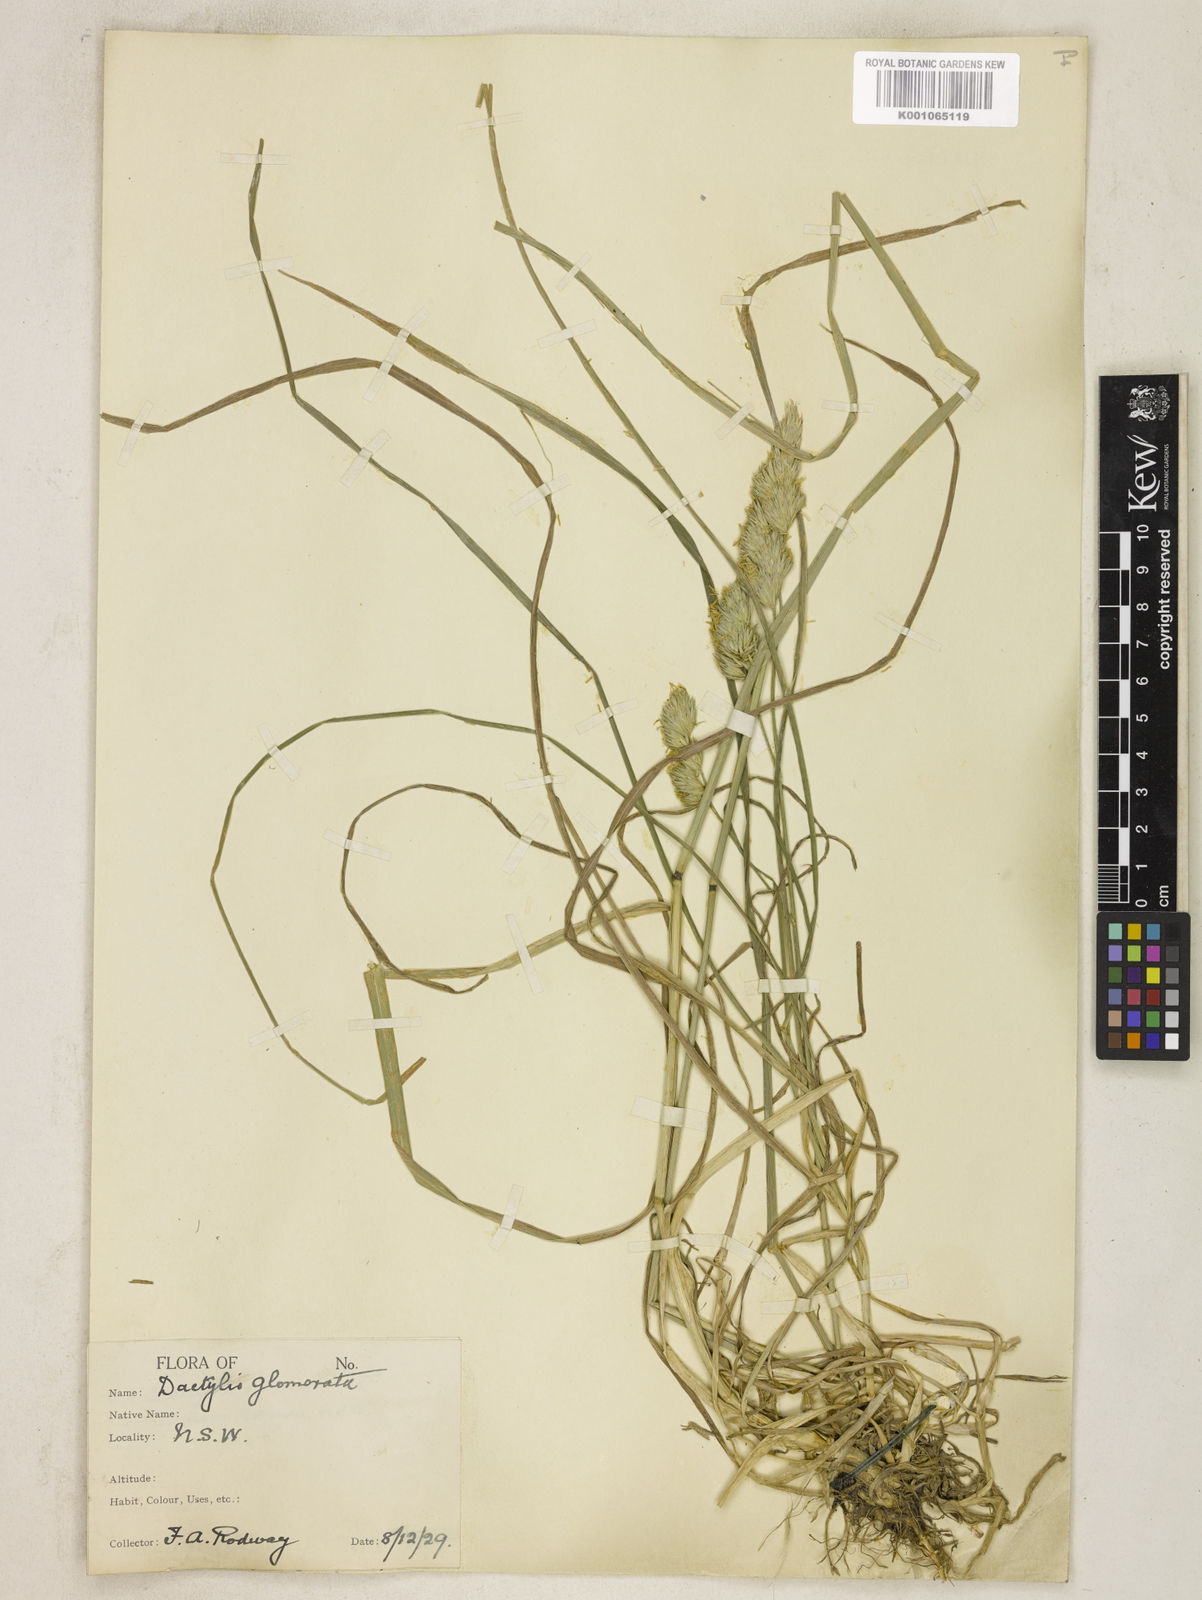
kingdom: Plantae
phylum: Tracheophyta
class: Liliopsida
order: Poales
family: Poaceae
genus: Dactylis
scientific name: Dactylis glomerata
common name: Orchardgrass
